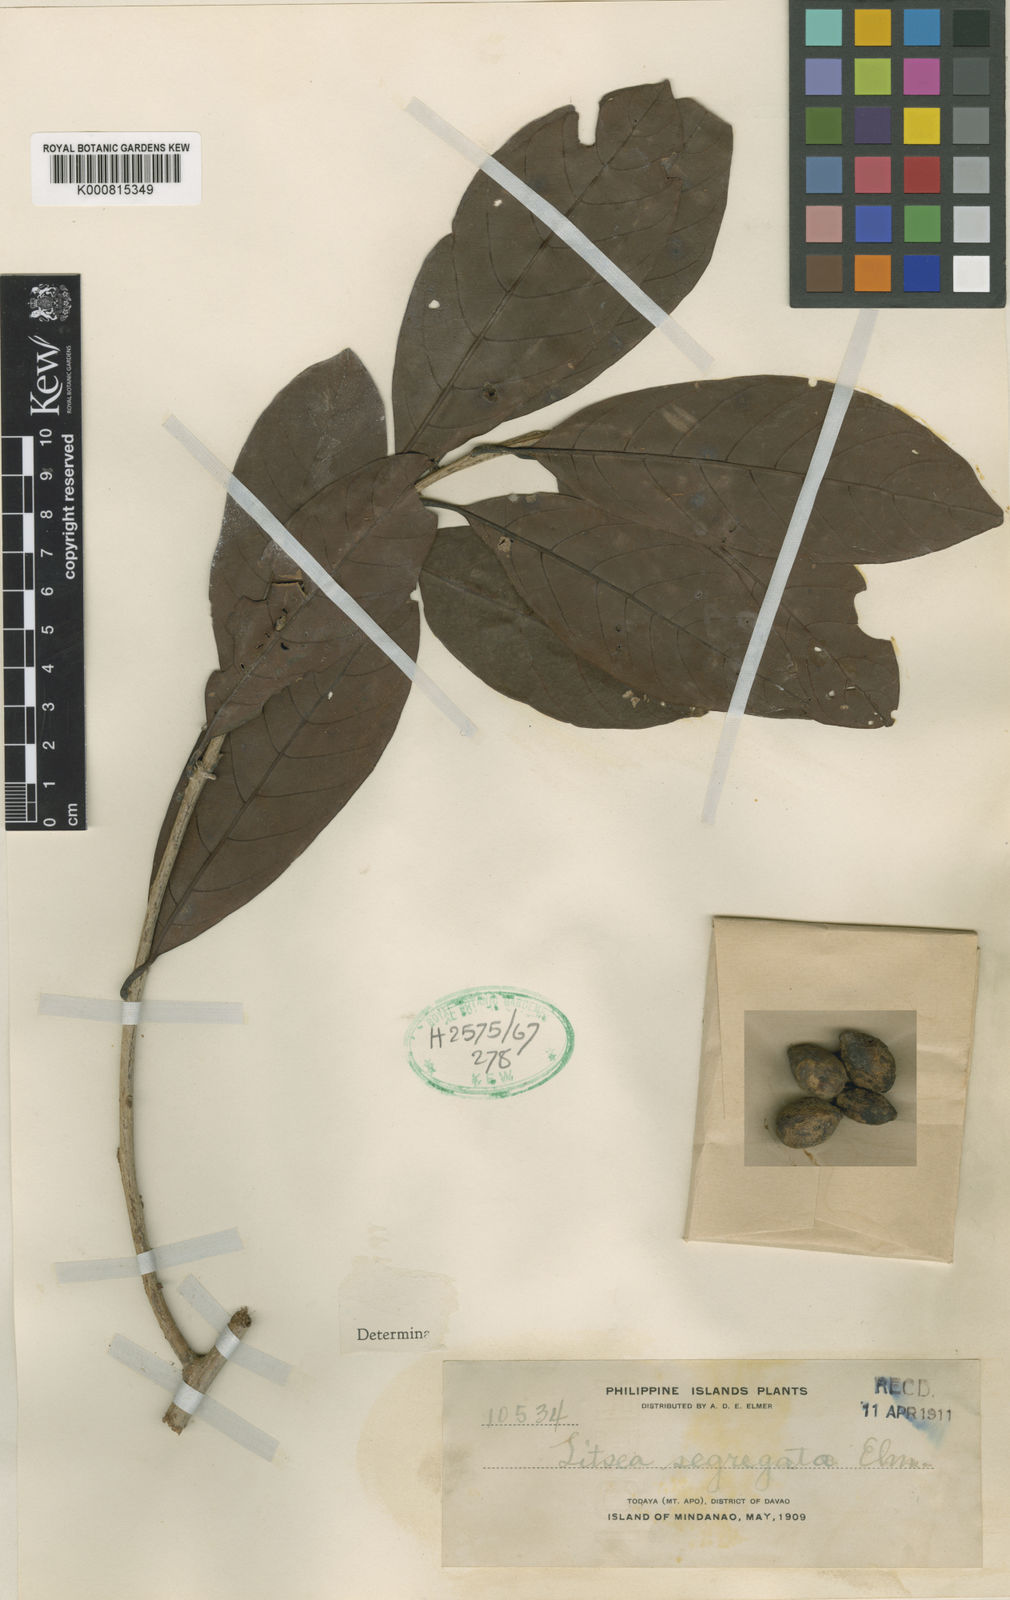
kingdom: Plantae
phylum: Tracheophyta
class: Magnoliopsida
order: Laurales
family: Lauraceae
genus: Litsea
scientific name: Litsea segregata
